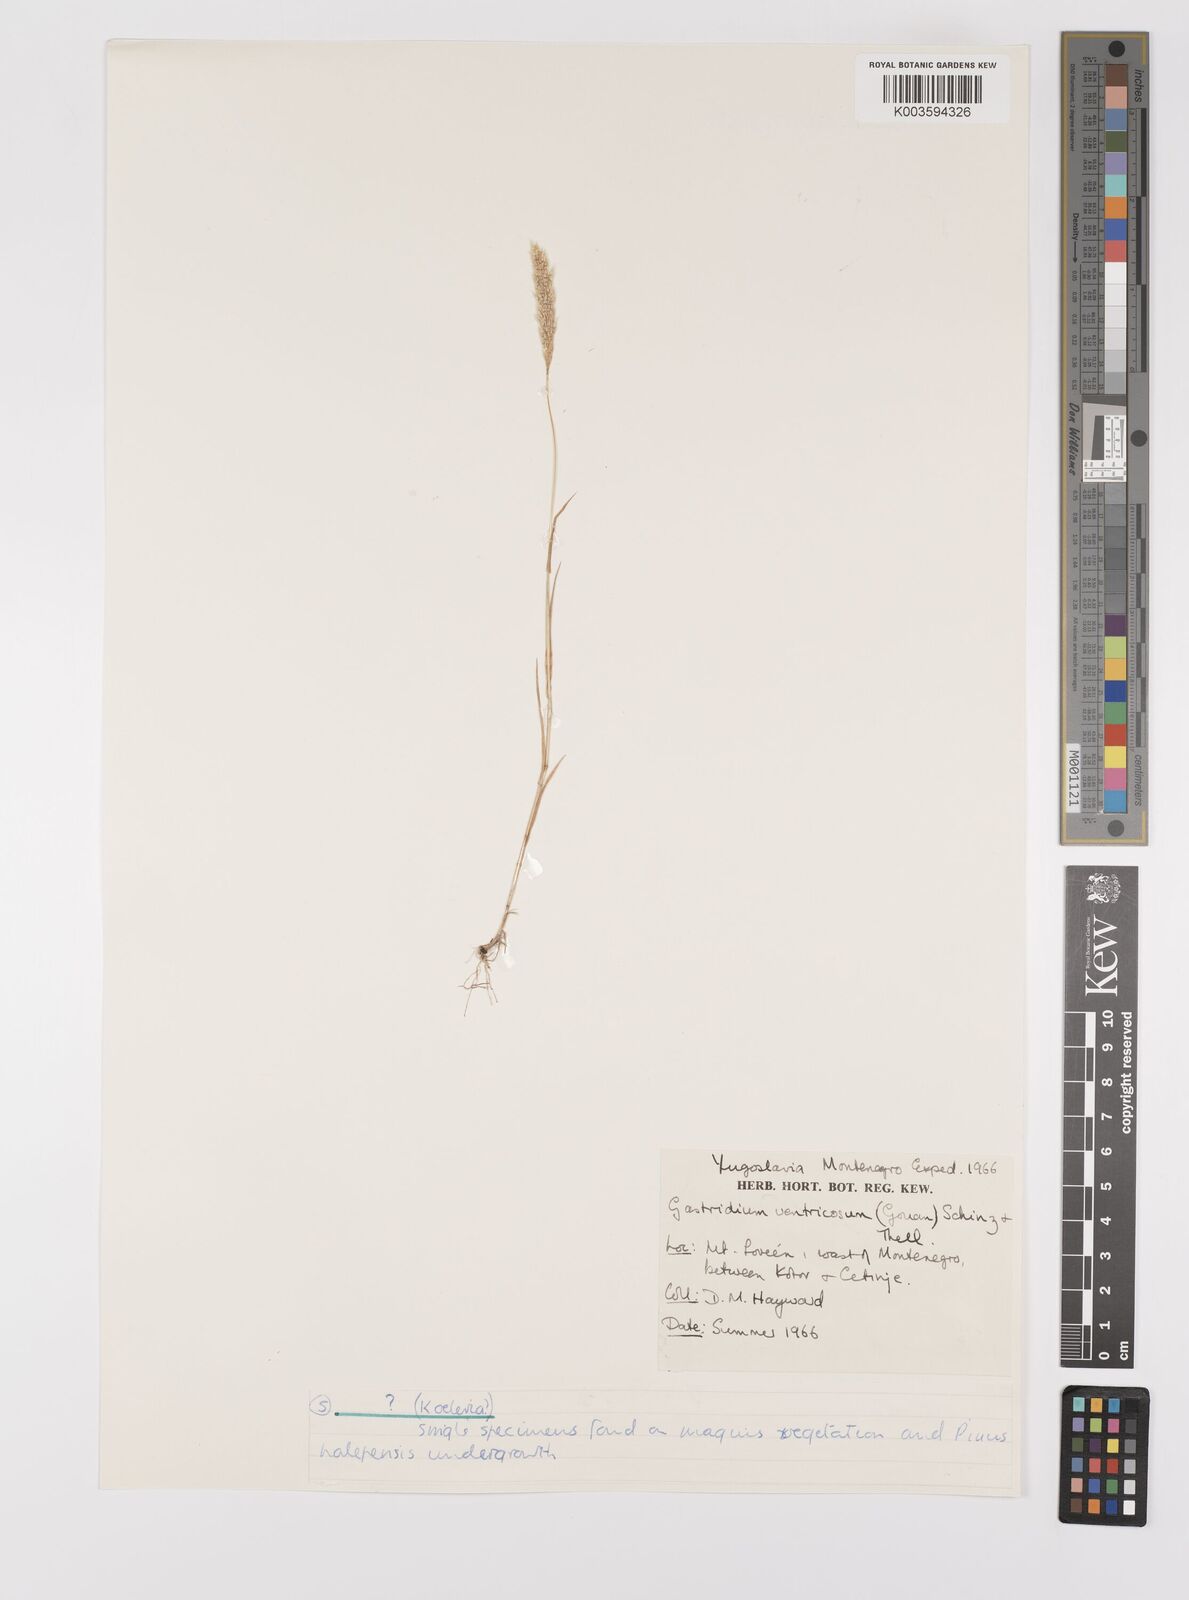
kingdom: Plantae
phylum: Tracheophyta
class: Liliopsida
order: Poales
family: Poaceae
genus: Gastridium
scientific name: Gastridium ventricosum
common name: Nit-grass
